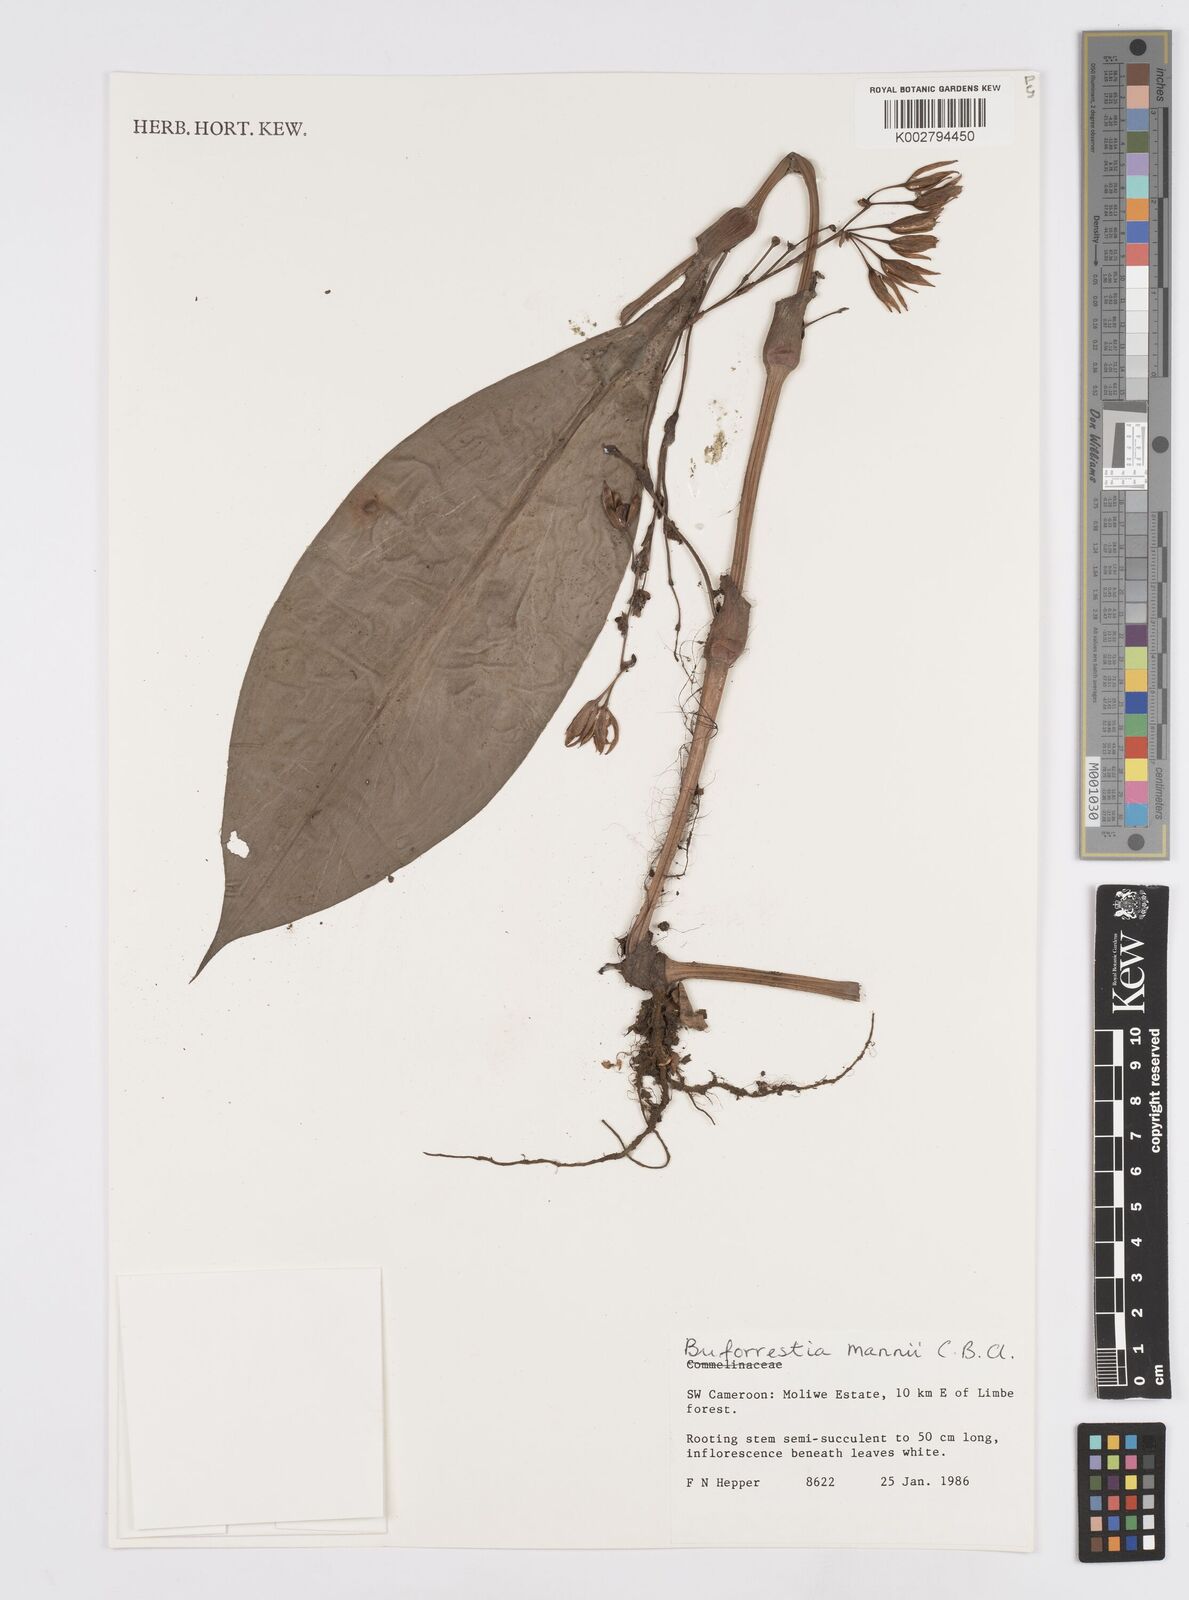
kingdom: Plantae
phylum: Tracheophyta
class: Liliopsida
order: Commelinales
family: Commelinaceae
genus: Buforrestia
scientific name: Buforrestia mannii
